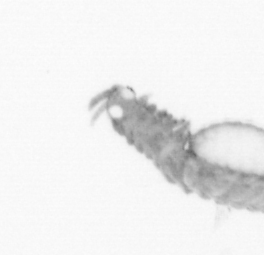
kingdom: Animalia
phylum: Annelida
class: Polychaeta
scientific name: Polychaeta
